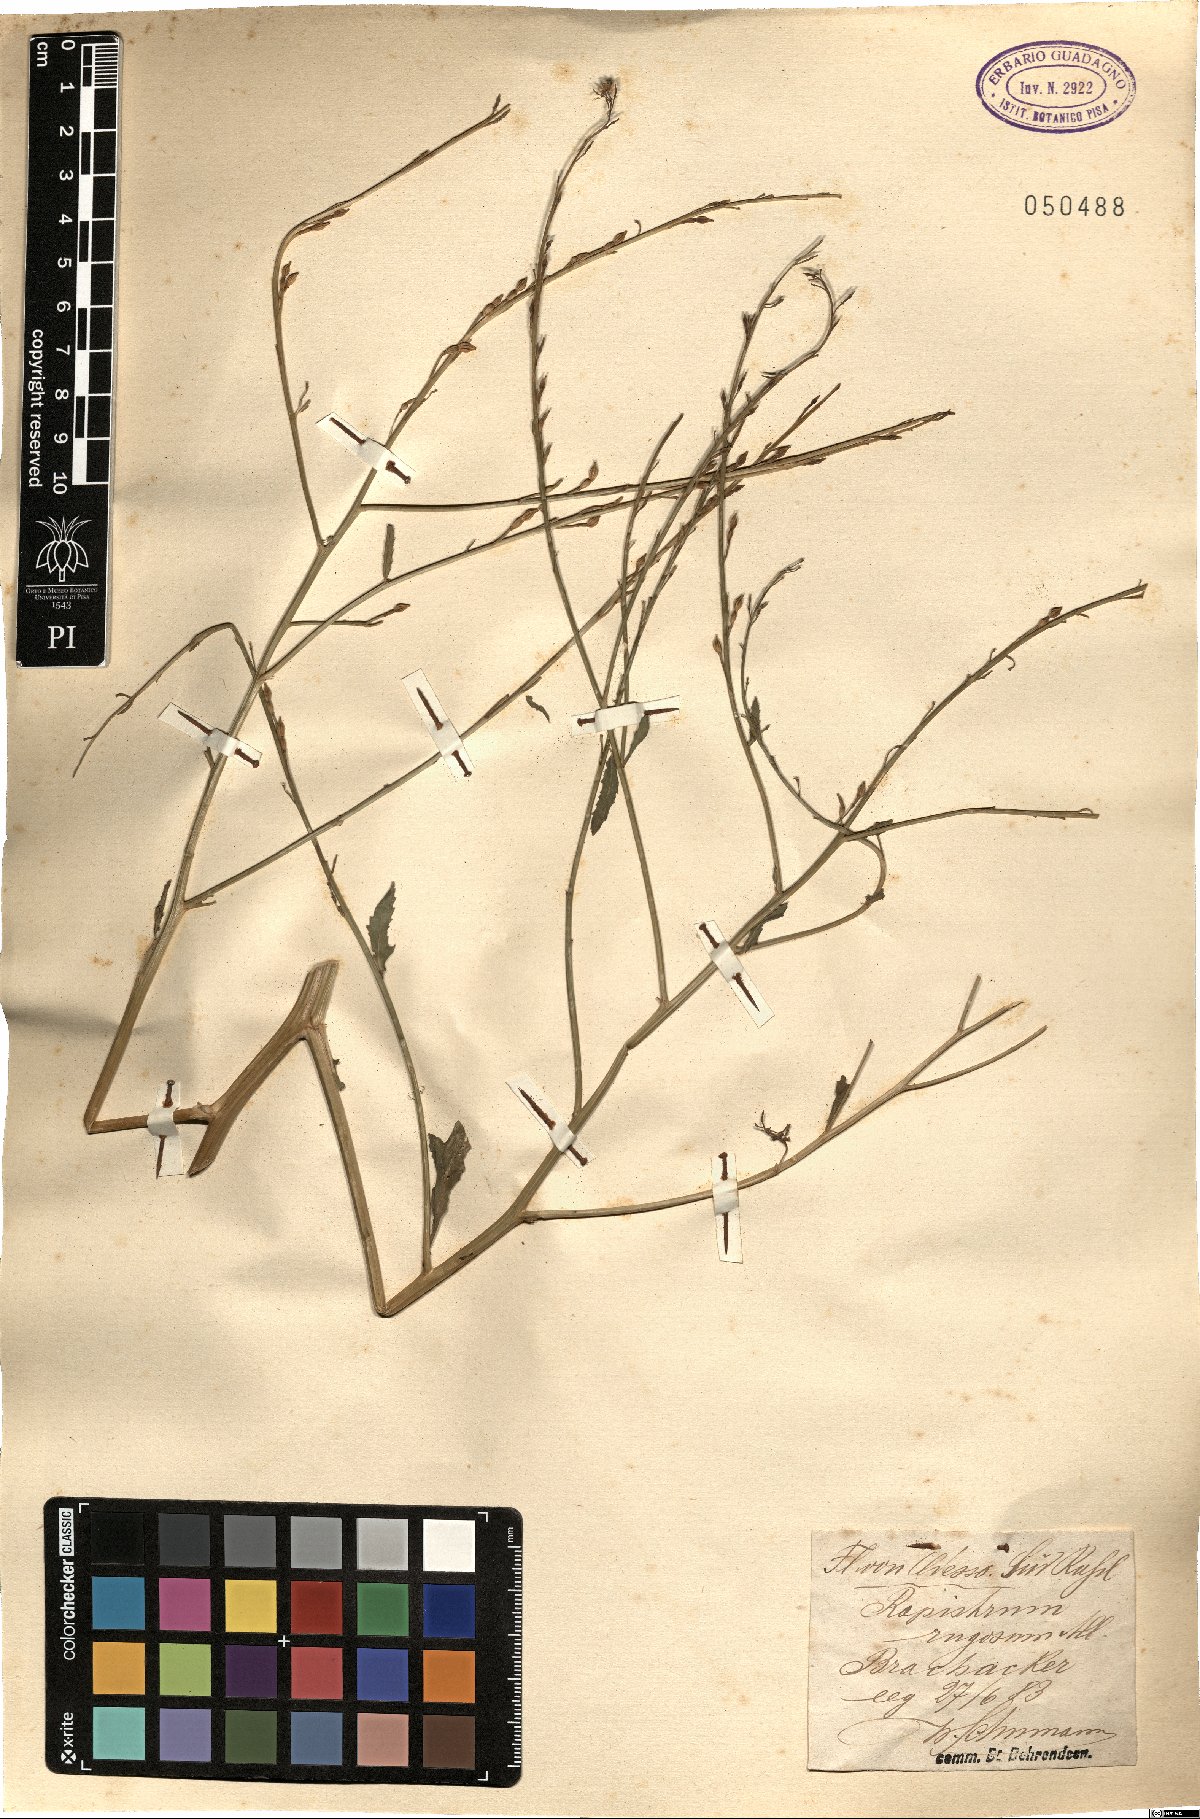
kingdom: Plantae
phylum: Tracheophyta
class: Magnoliopsida
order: Brassicales
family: Brassicaceae
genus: Rapistrum
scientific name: Rapistrum rugosum
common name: Annual bastardcabbage
